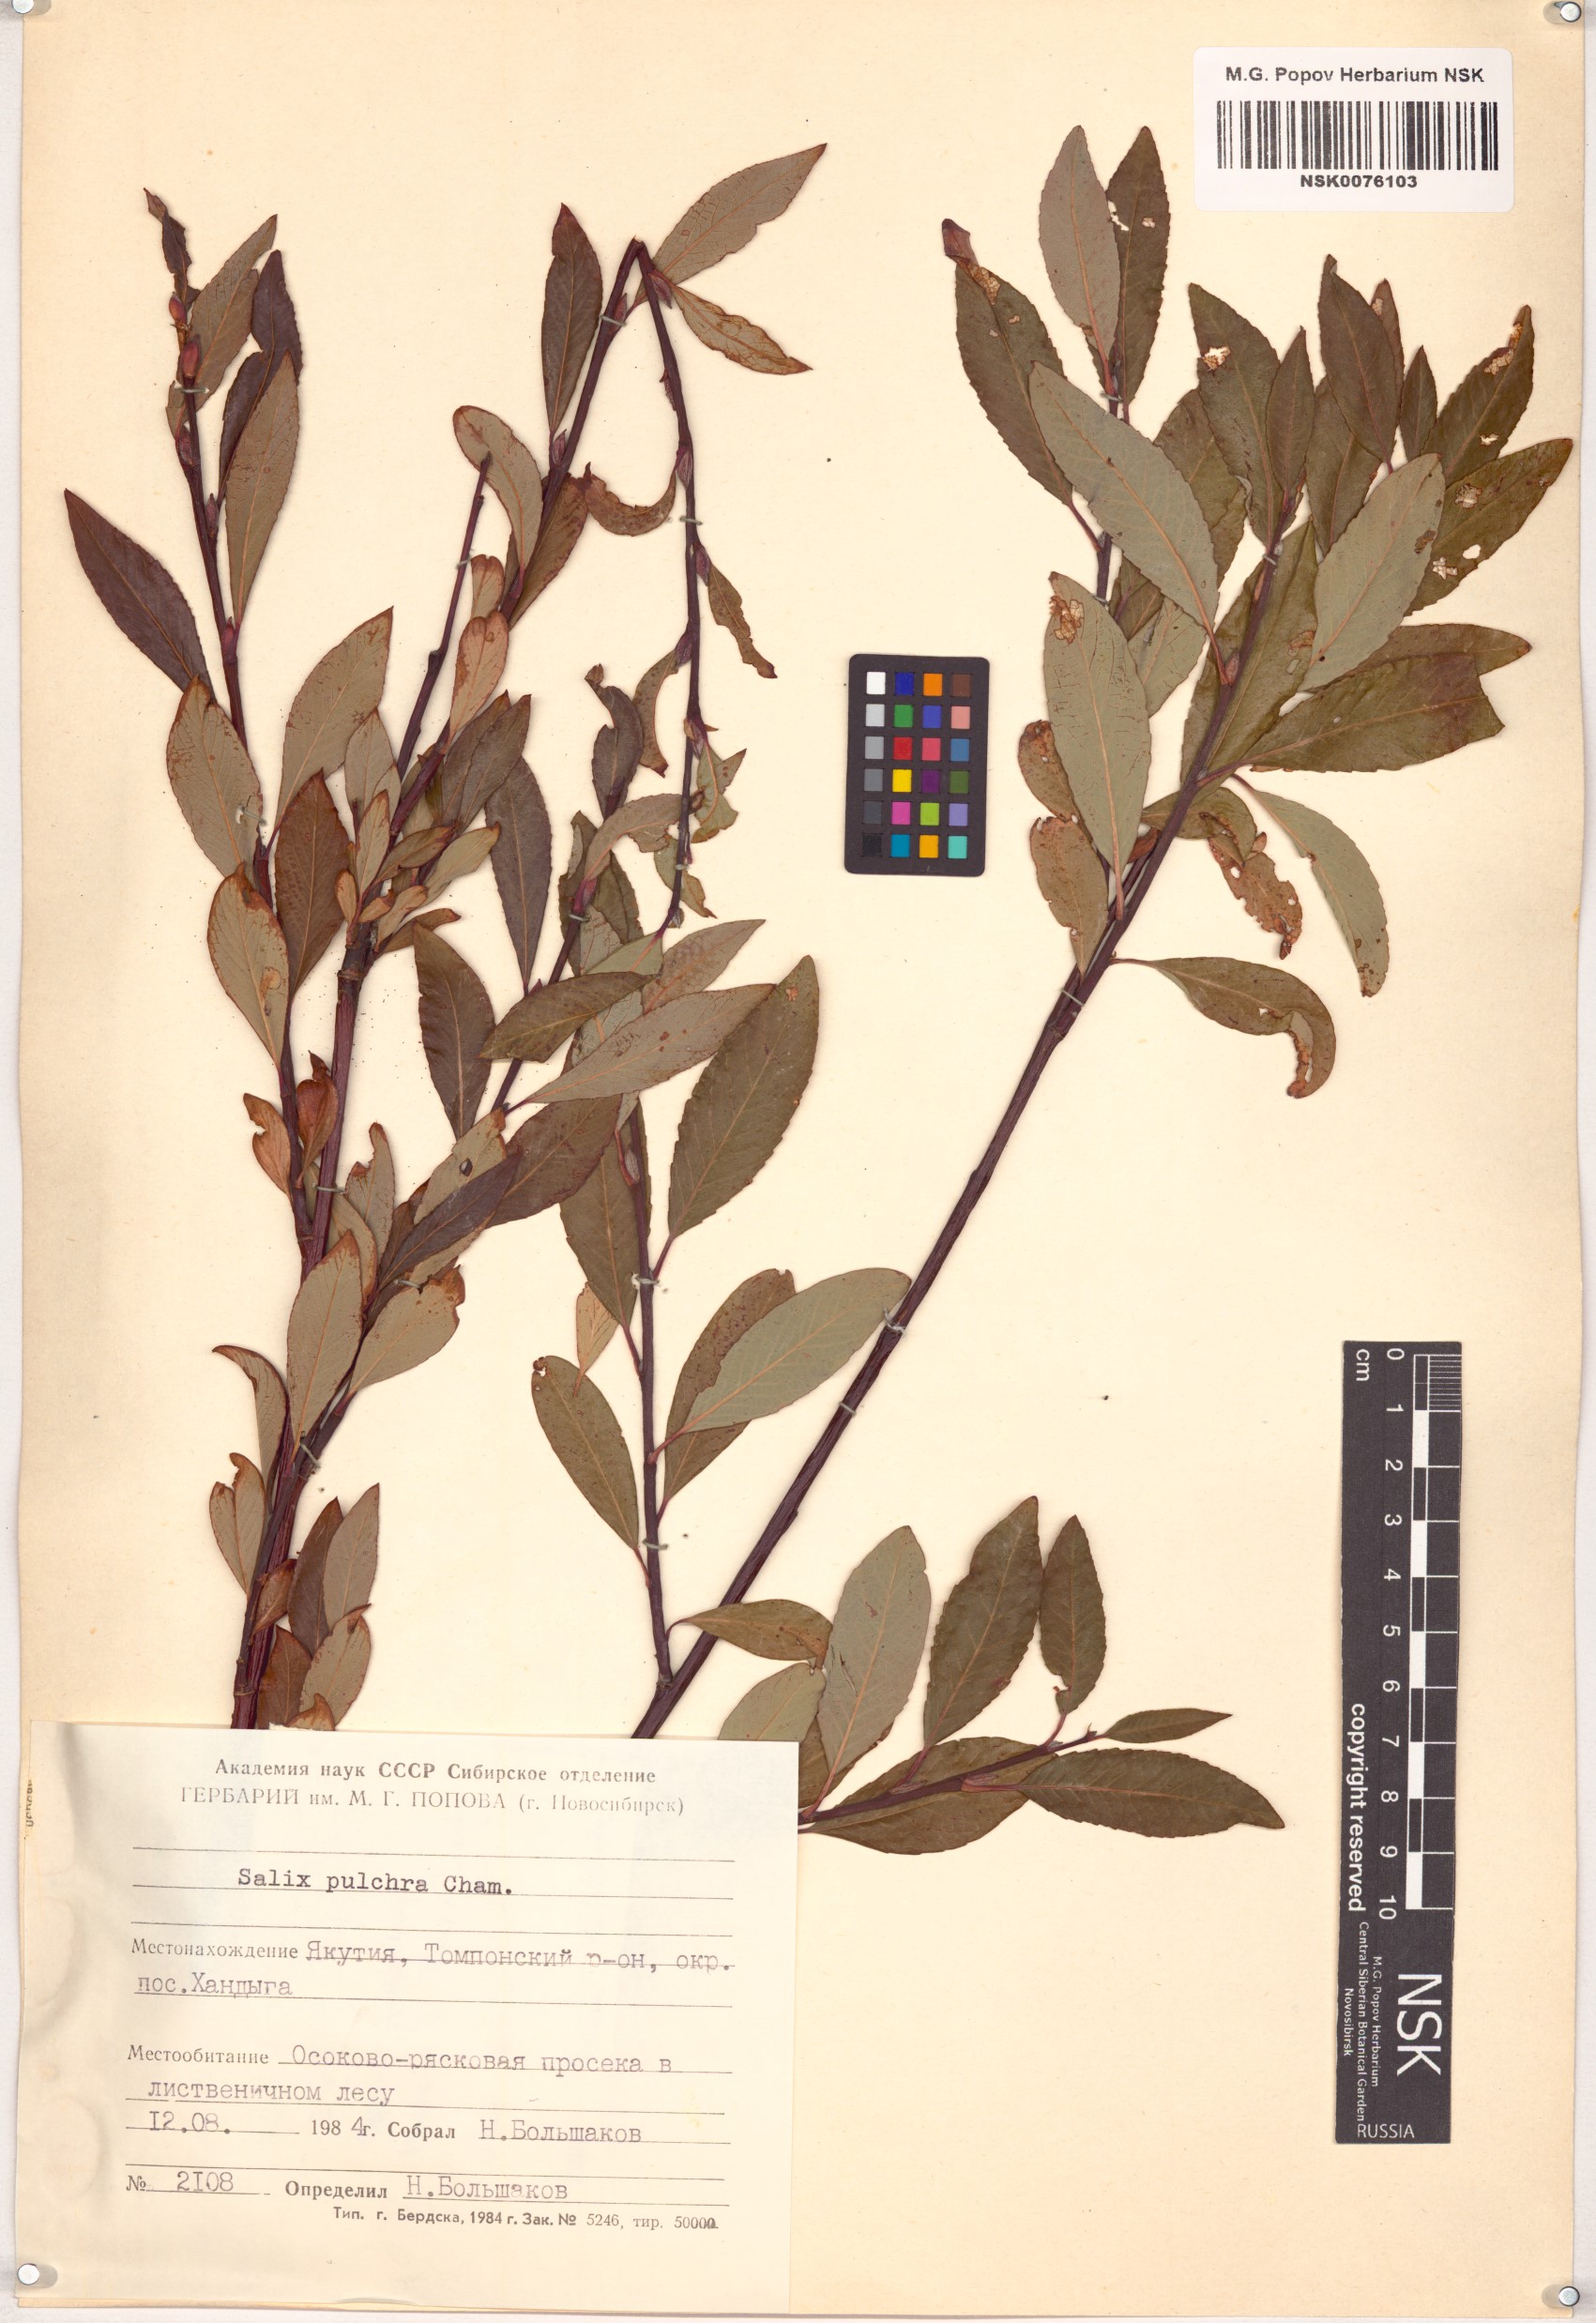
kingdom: Plantae
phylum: Tracheophyta
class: Magnoliopsida
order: Malpighiales
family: Salicaceae
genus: Salix
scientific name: Salix pulchra
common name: Diamond-leaved willow
